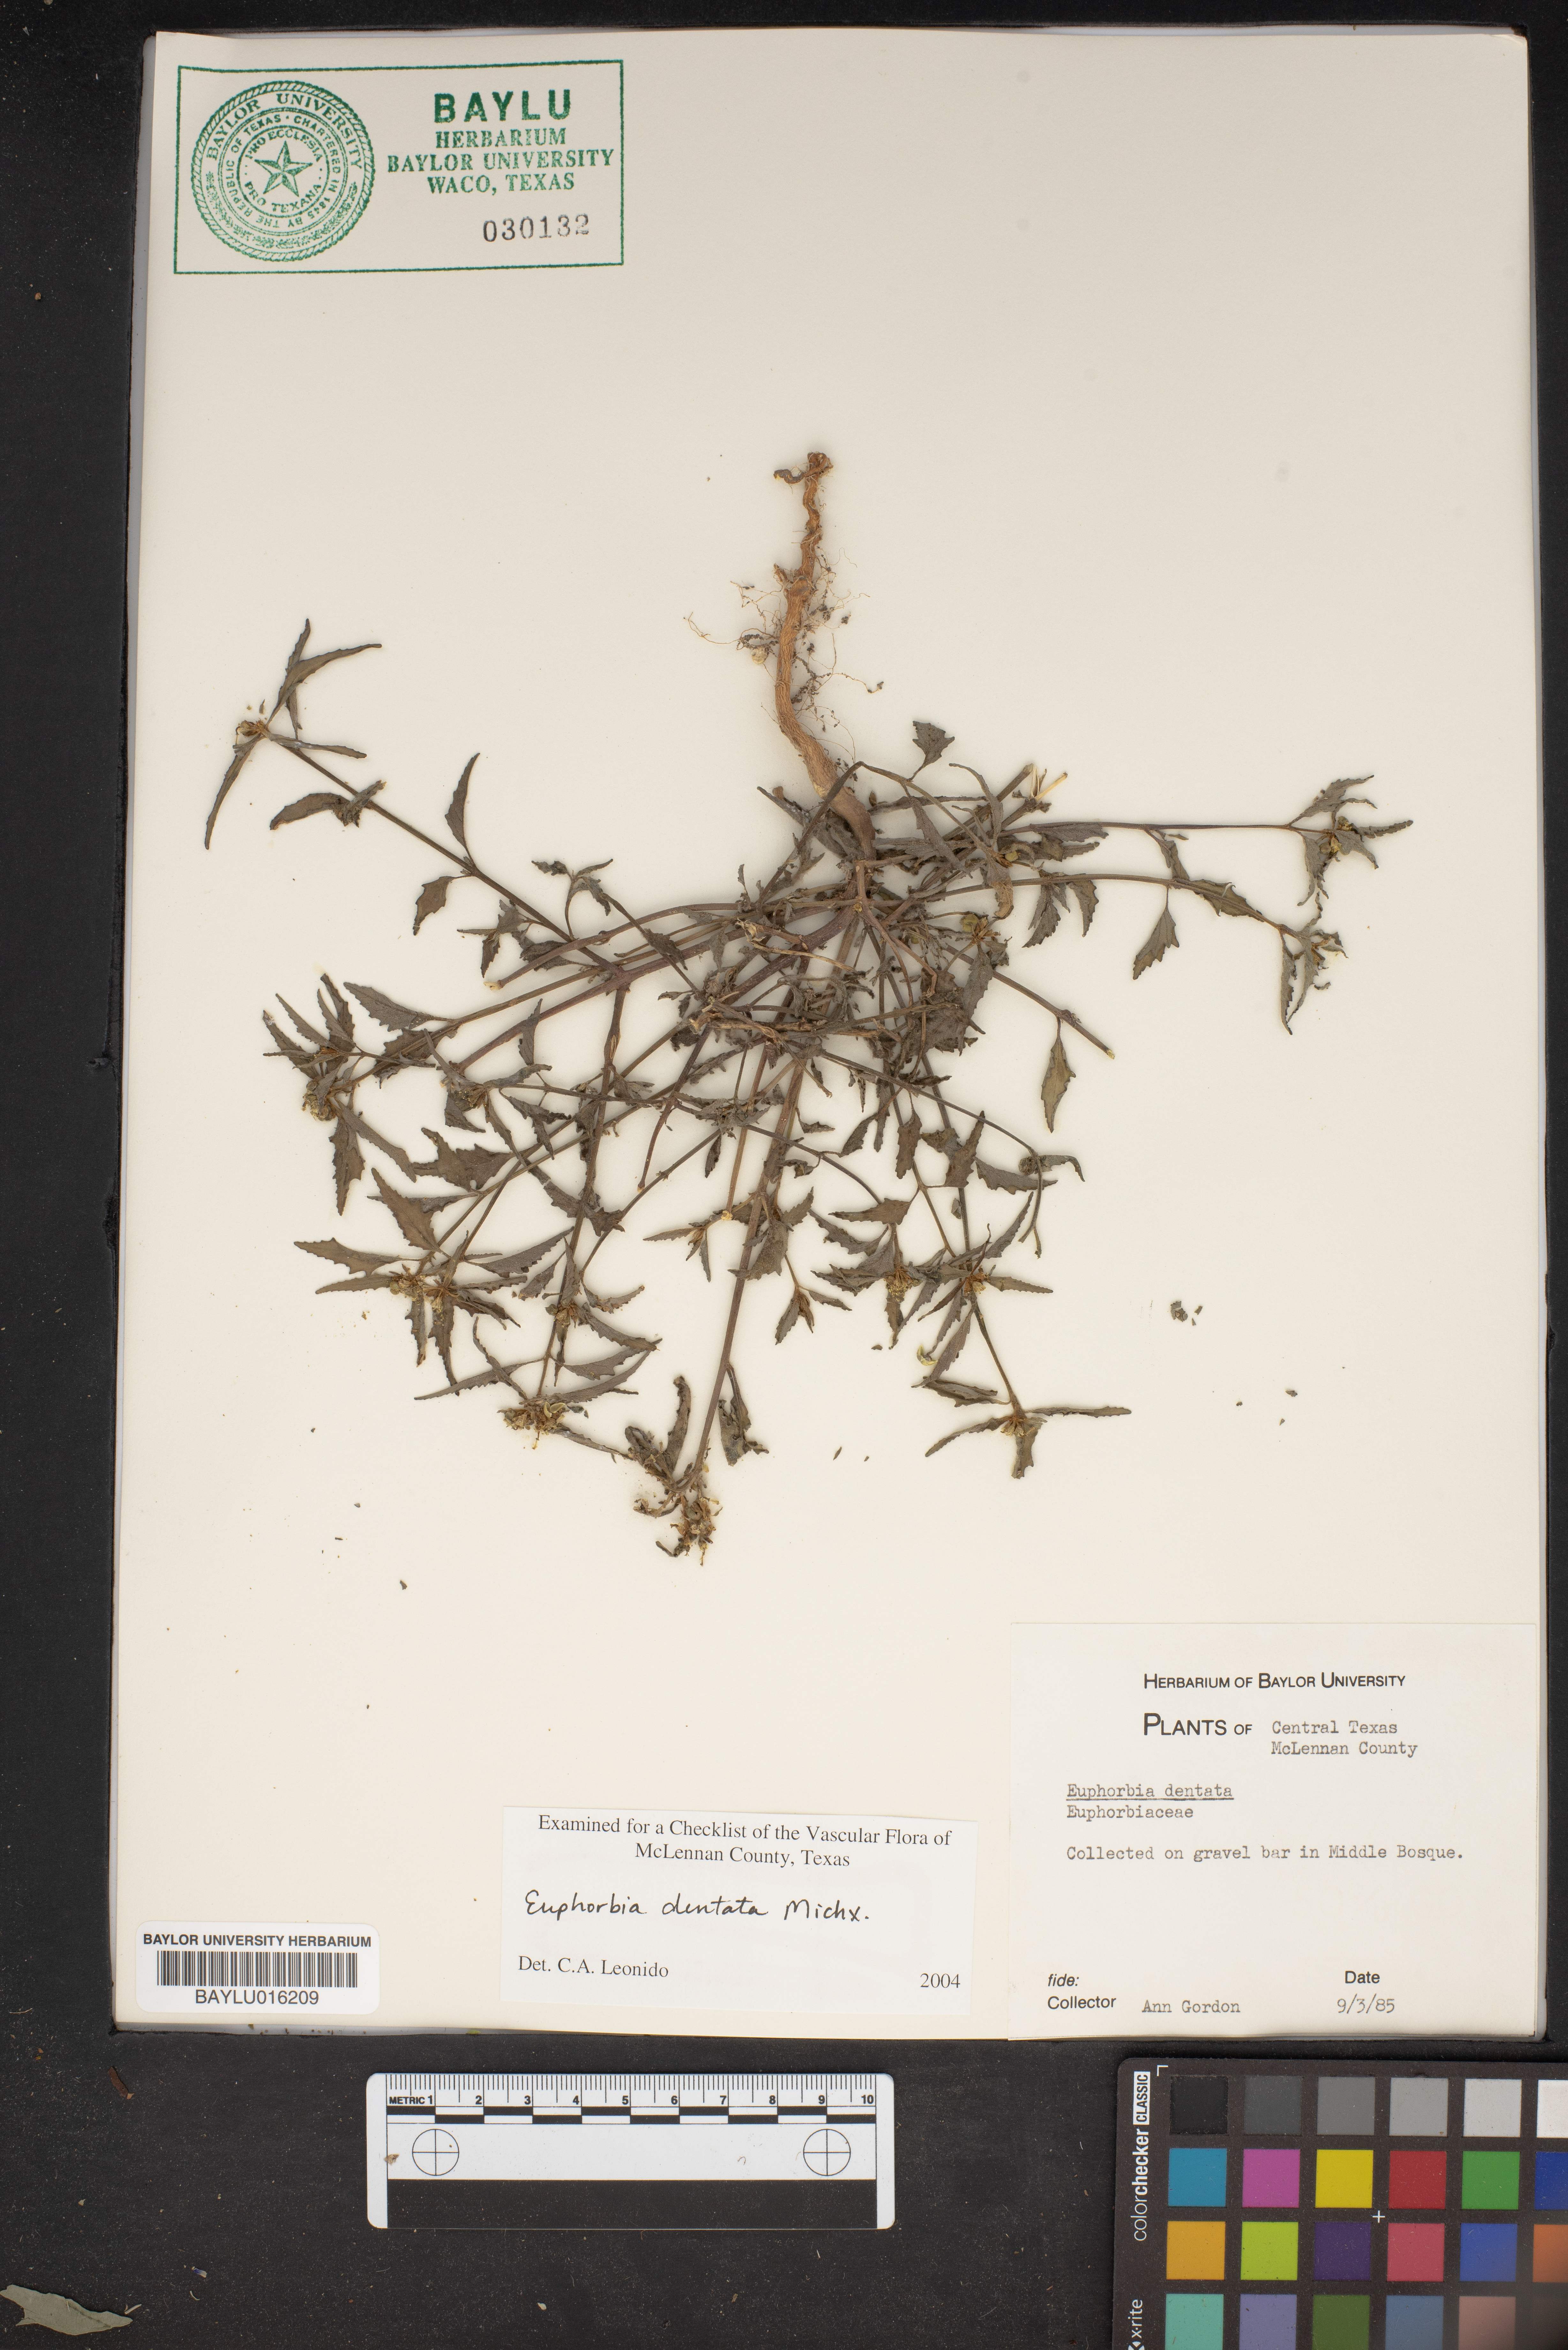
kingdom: Plantae
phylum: Tracheophyta
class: Magnoliopsida
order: Malpighiales
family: Euphorbiaceae
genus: Euphorbia
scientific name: Euphorbia dentata
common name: Dentate spurge
